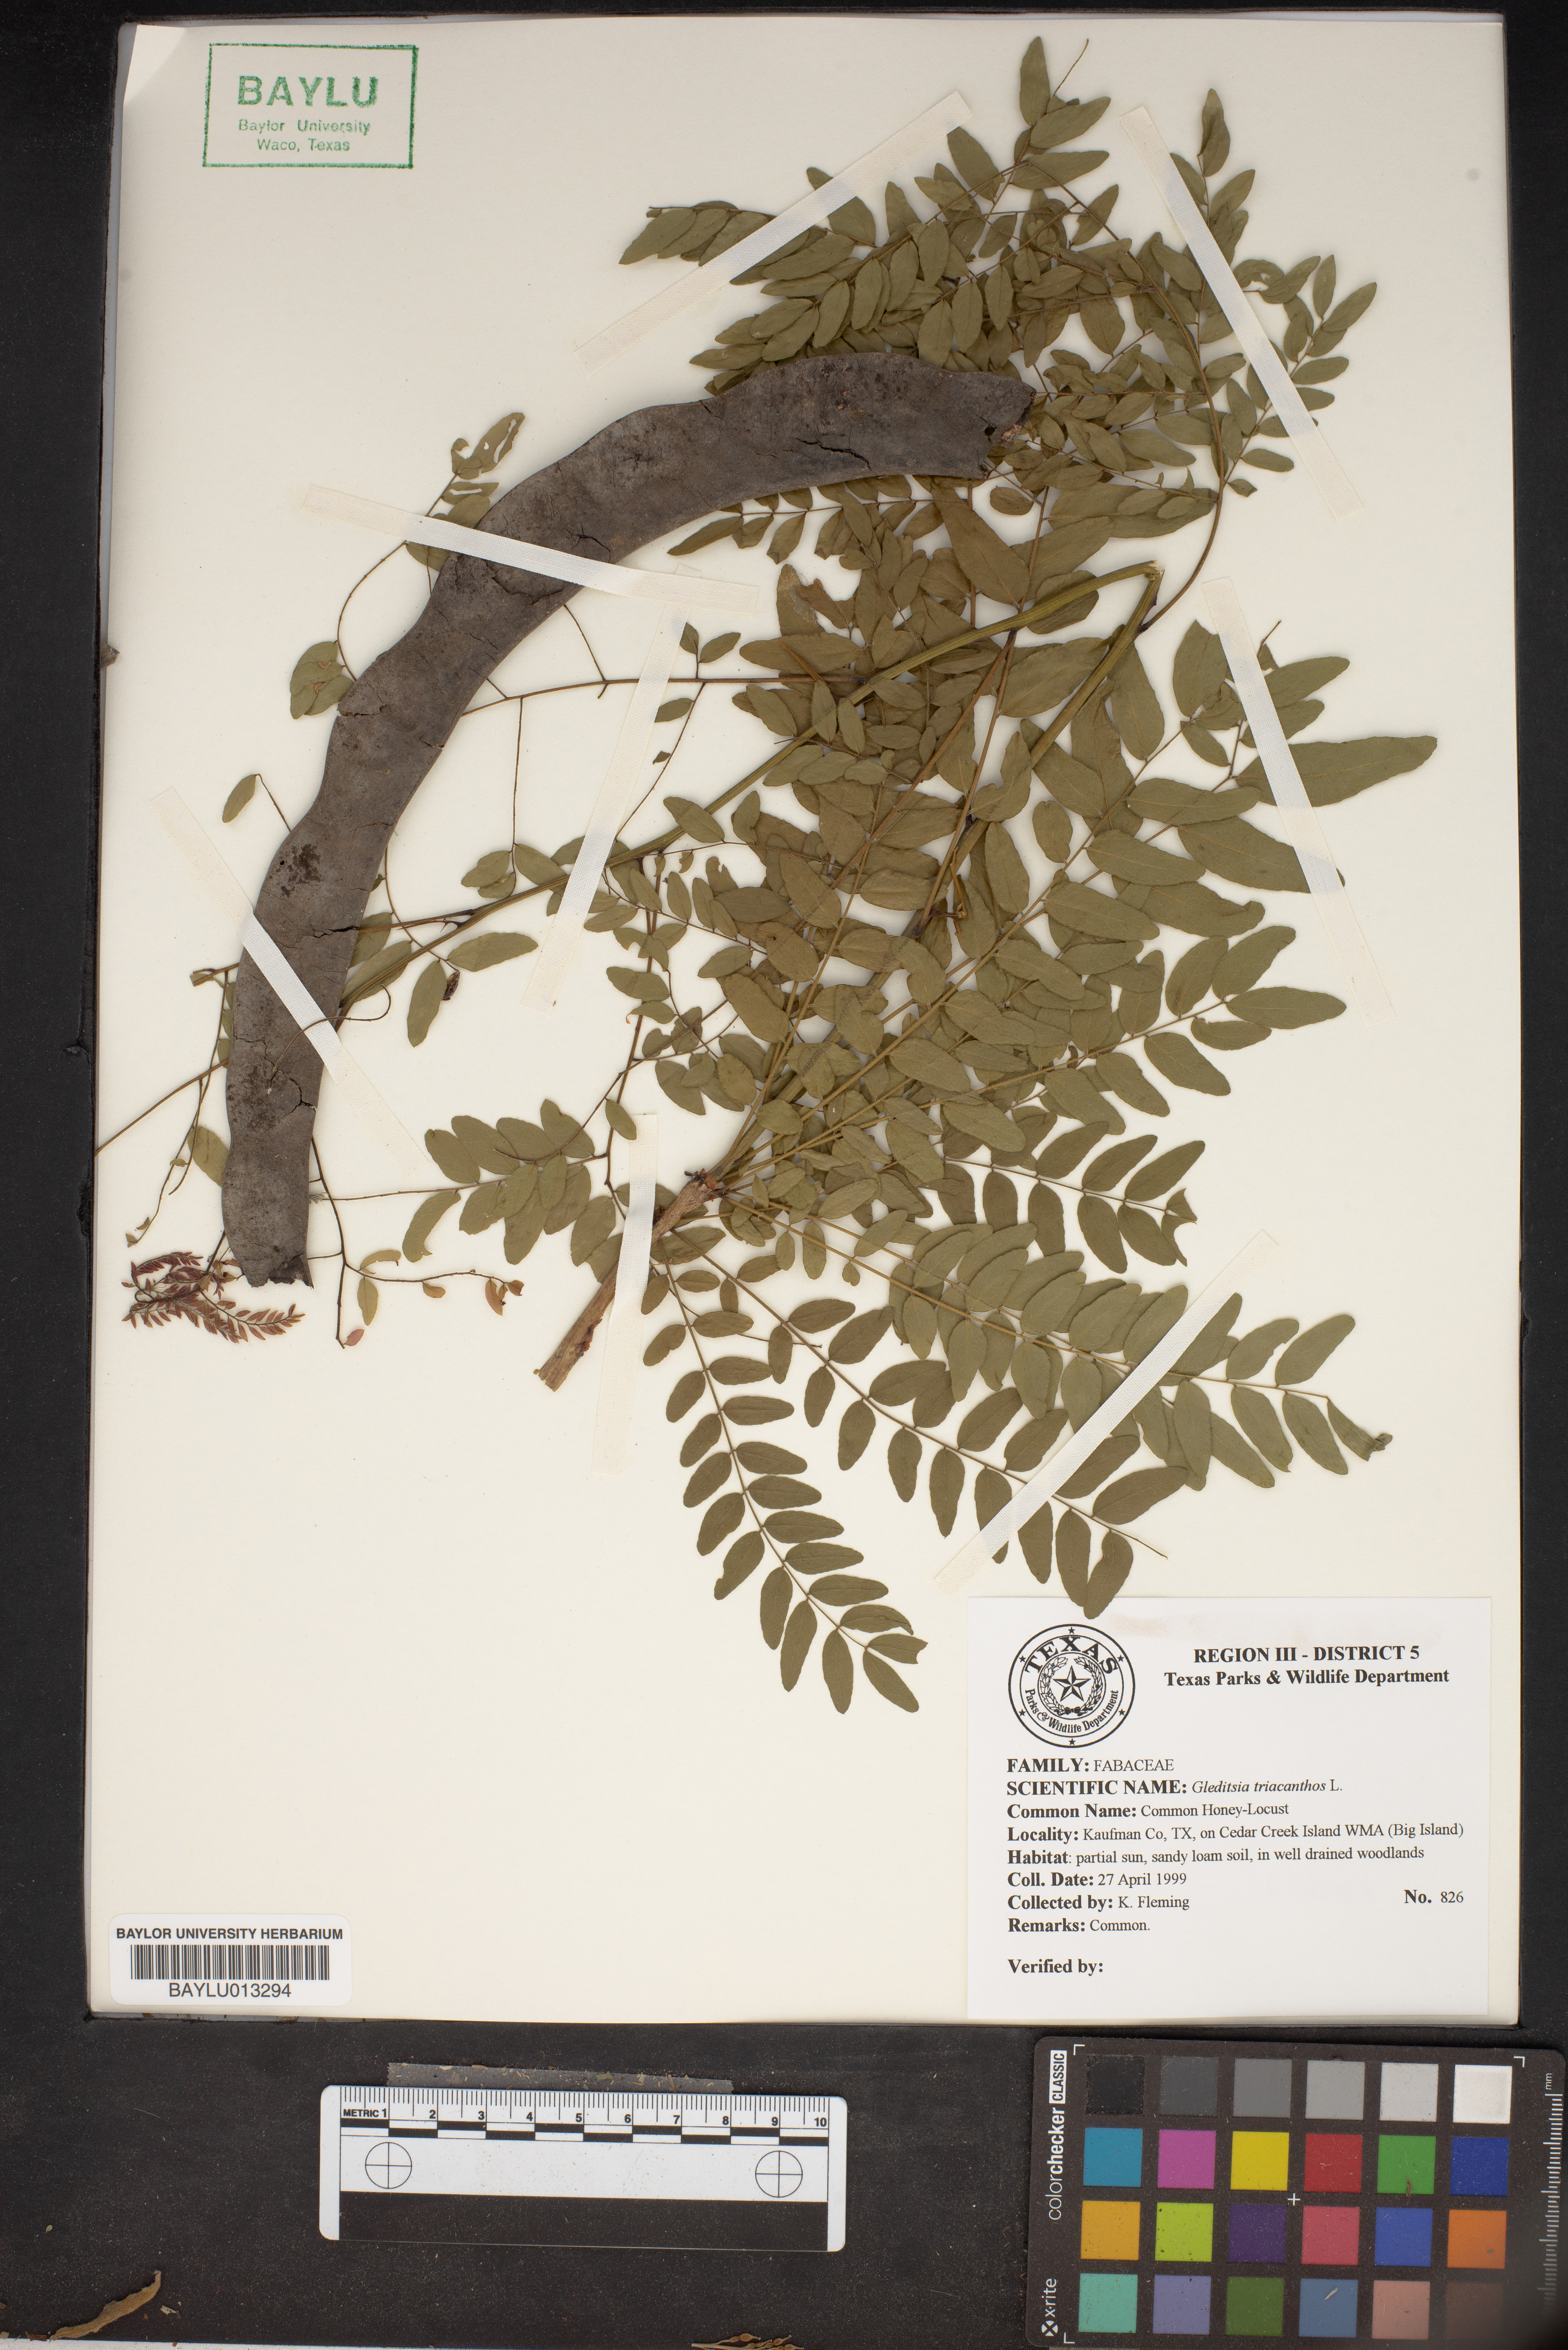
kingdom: Plantae
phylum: Tracheophyta
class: Magnoliopsida
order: Fabales
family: Fabaceae
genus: Gleditsia
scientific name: Gleditsia triacanthos
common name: Common honeylocust
